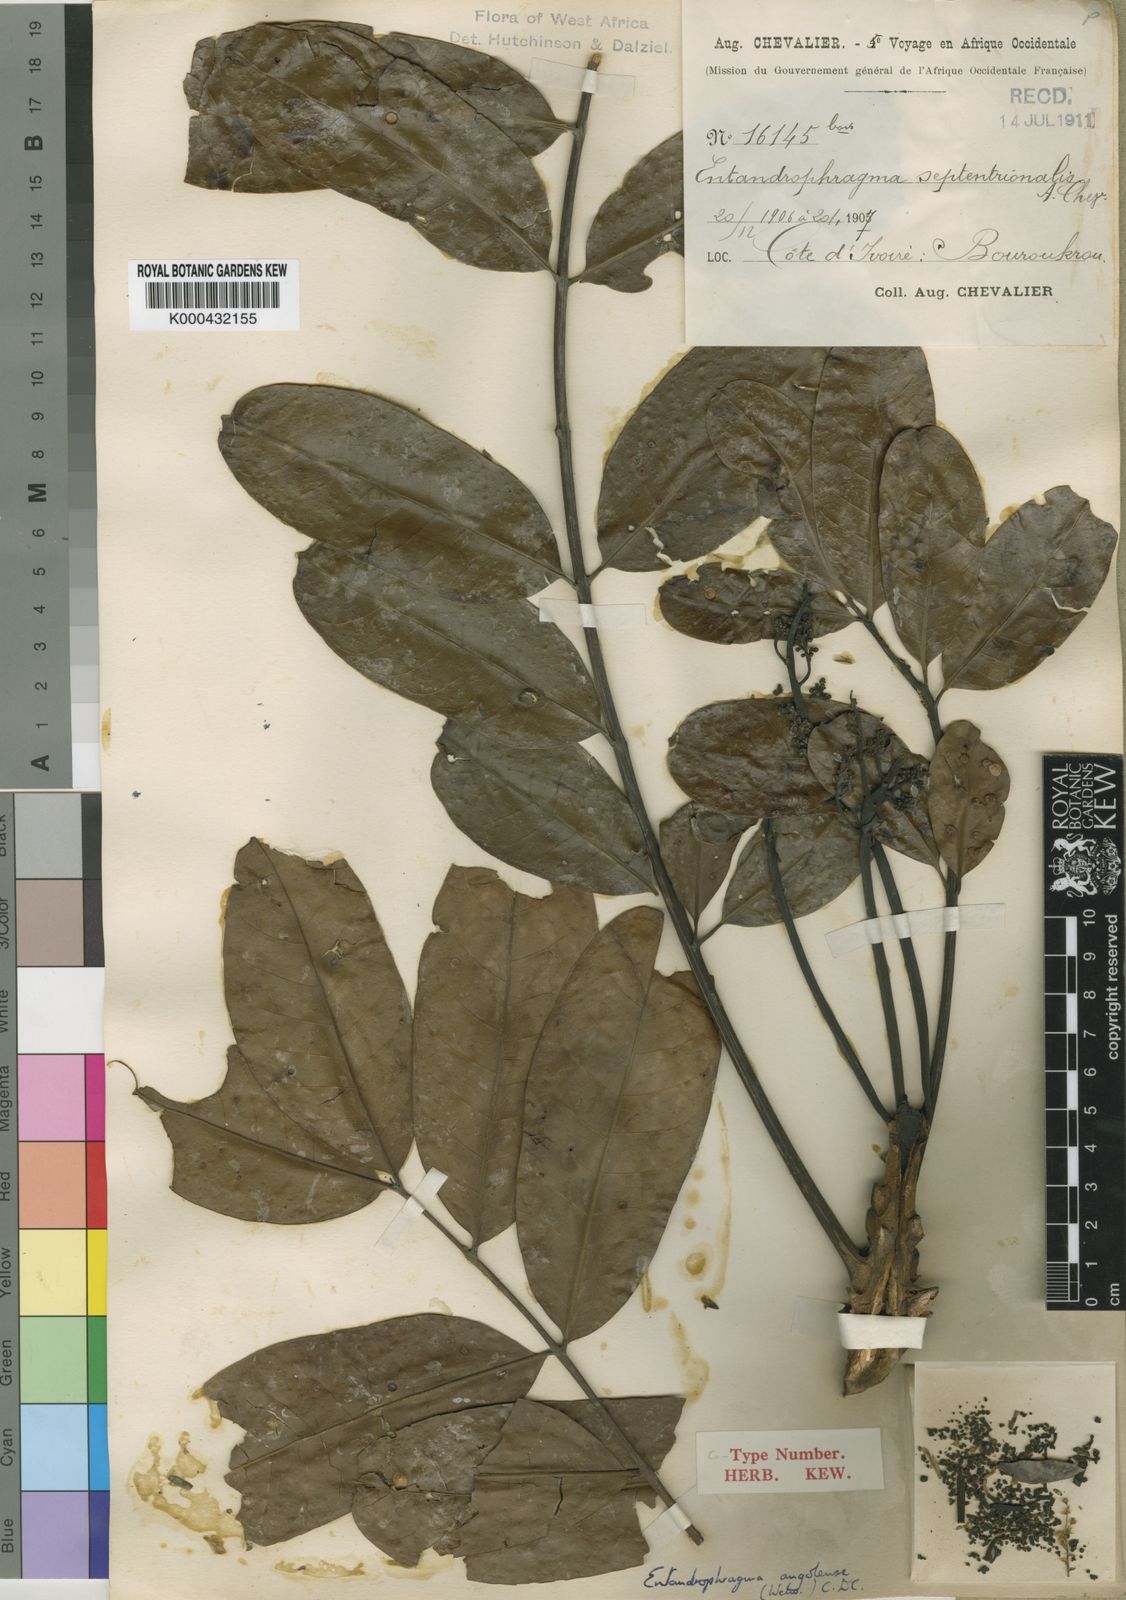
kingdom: Plantae
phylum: Tracheophyta
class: Magnoliopsida
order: Sapindales
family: Meliaceae
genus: Entandrophragma
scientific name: Entandrophragma
